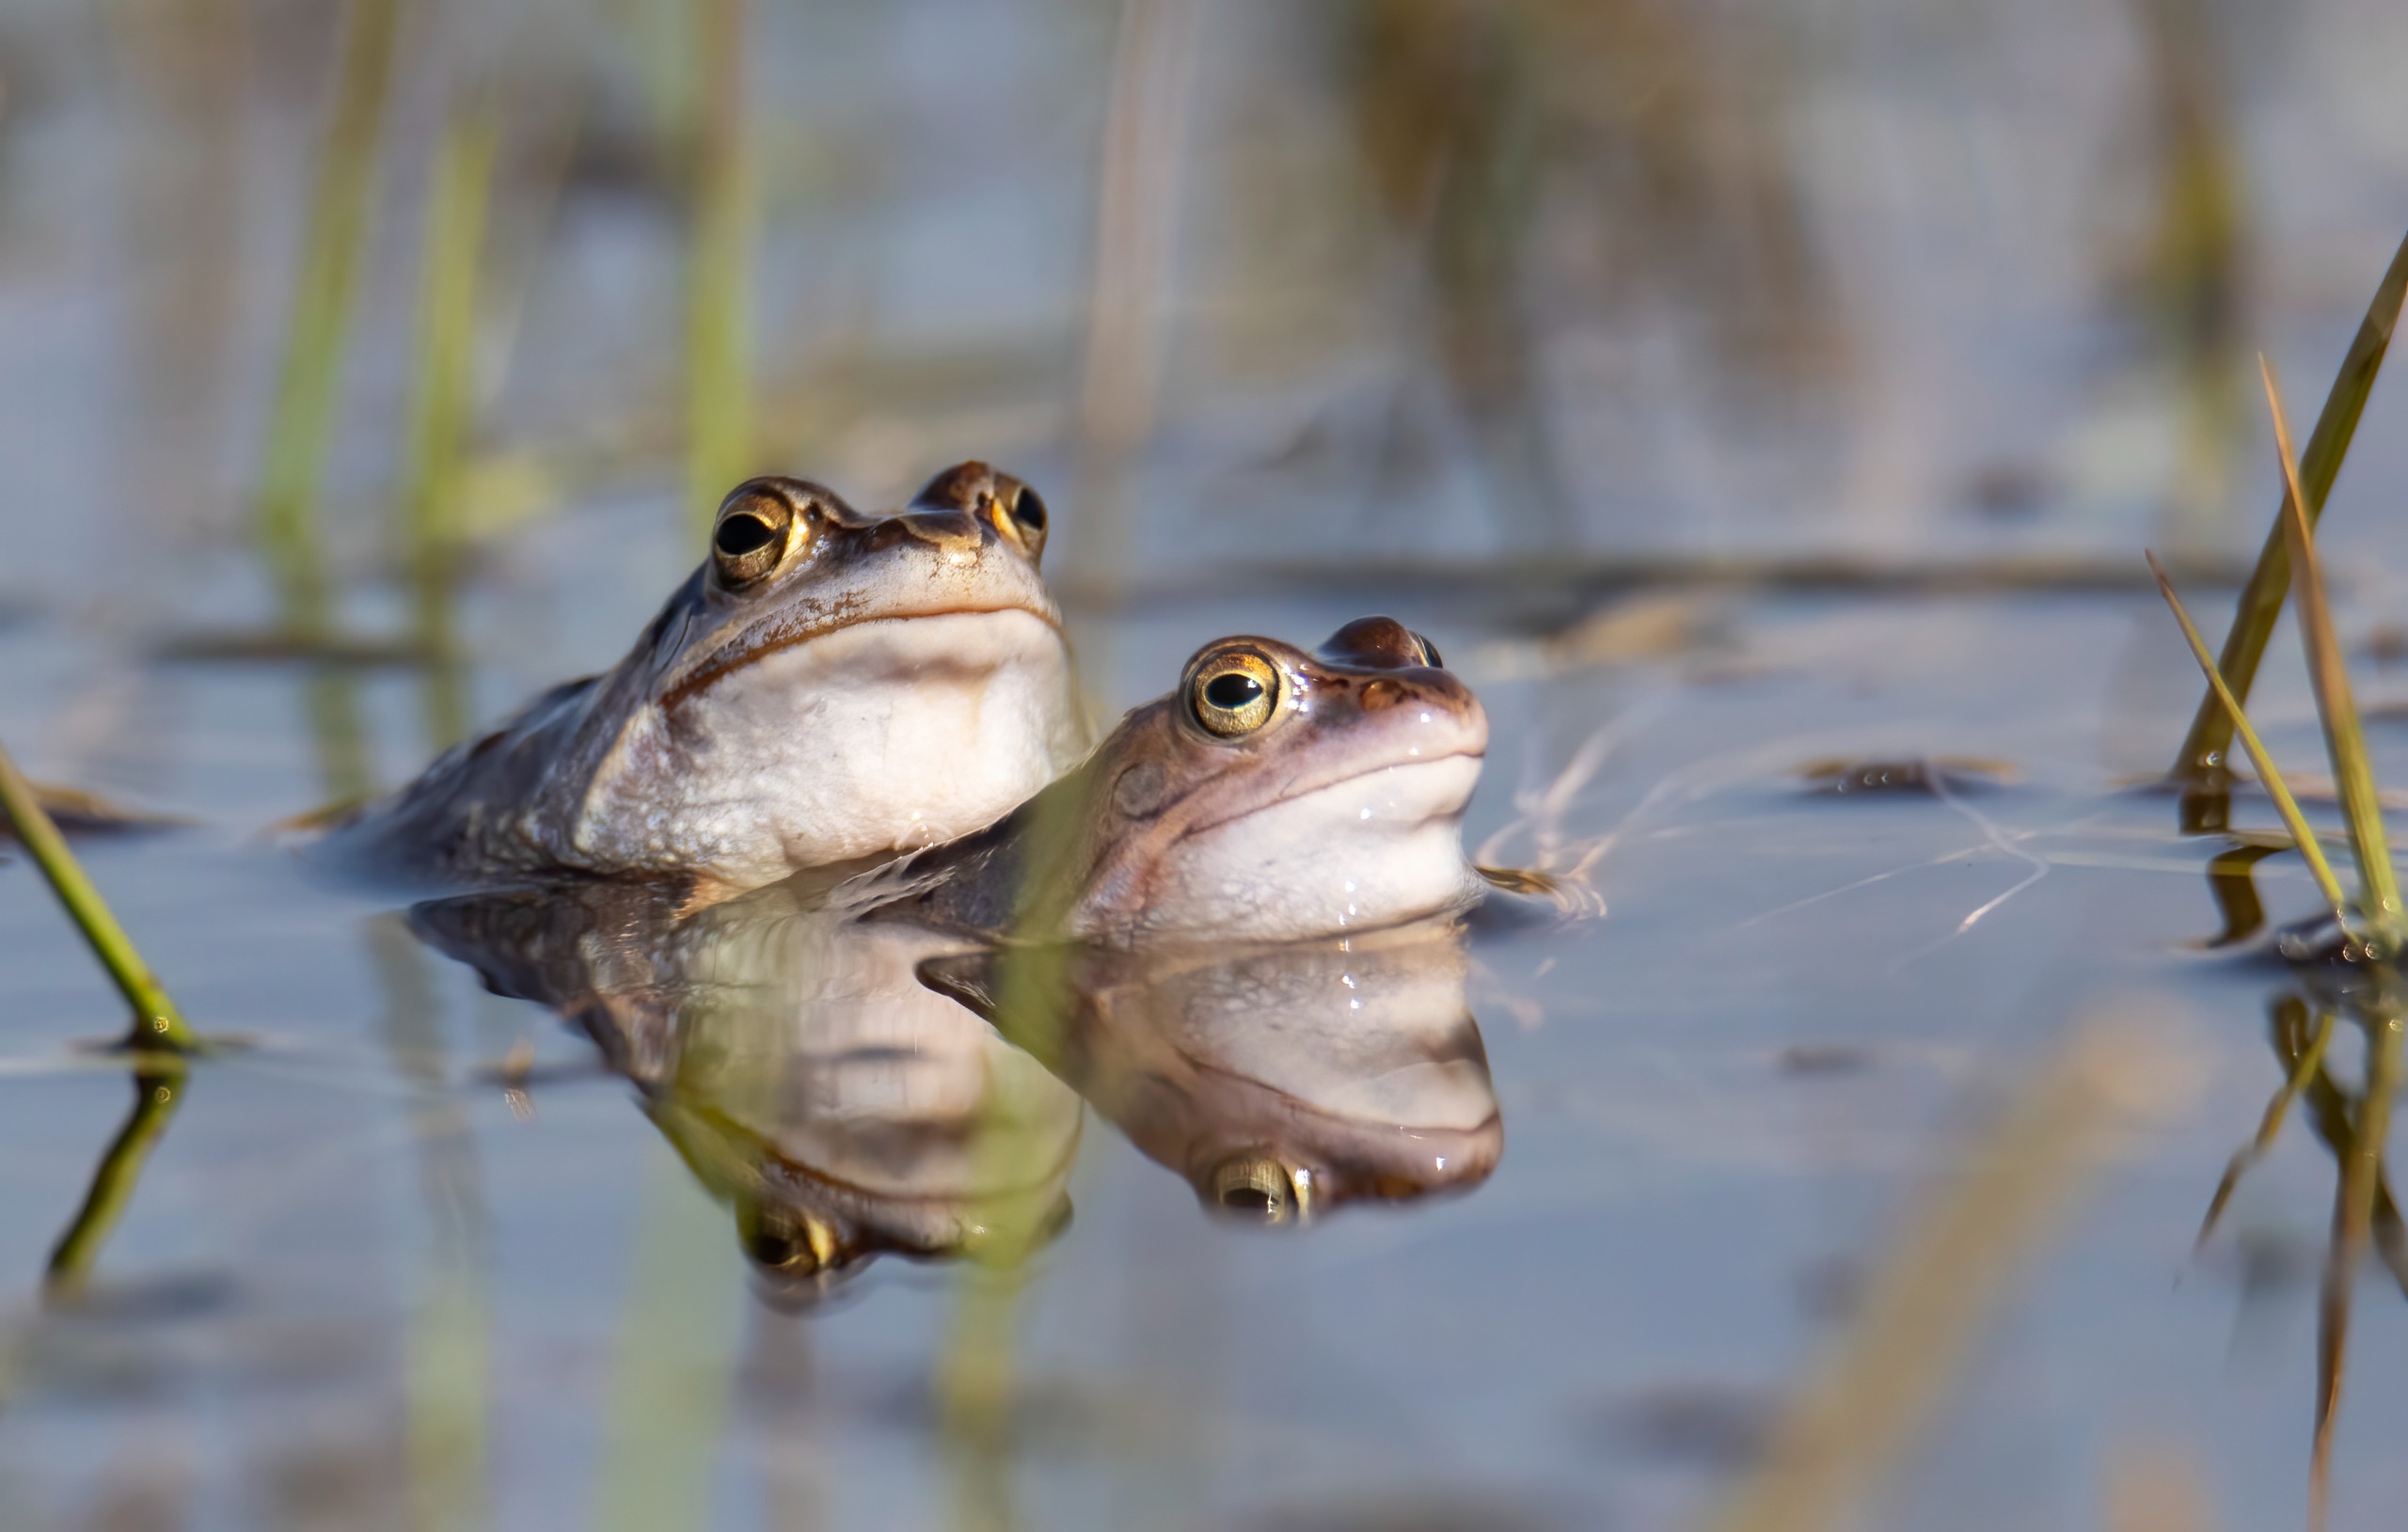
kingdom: Animalia
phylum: Chordata
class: Amphibia
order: Anura
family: Ranidae
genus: Rana
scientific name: Rana arvalis
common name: Spidssnudet frø
